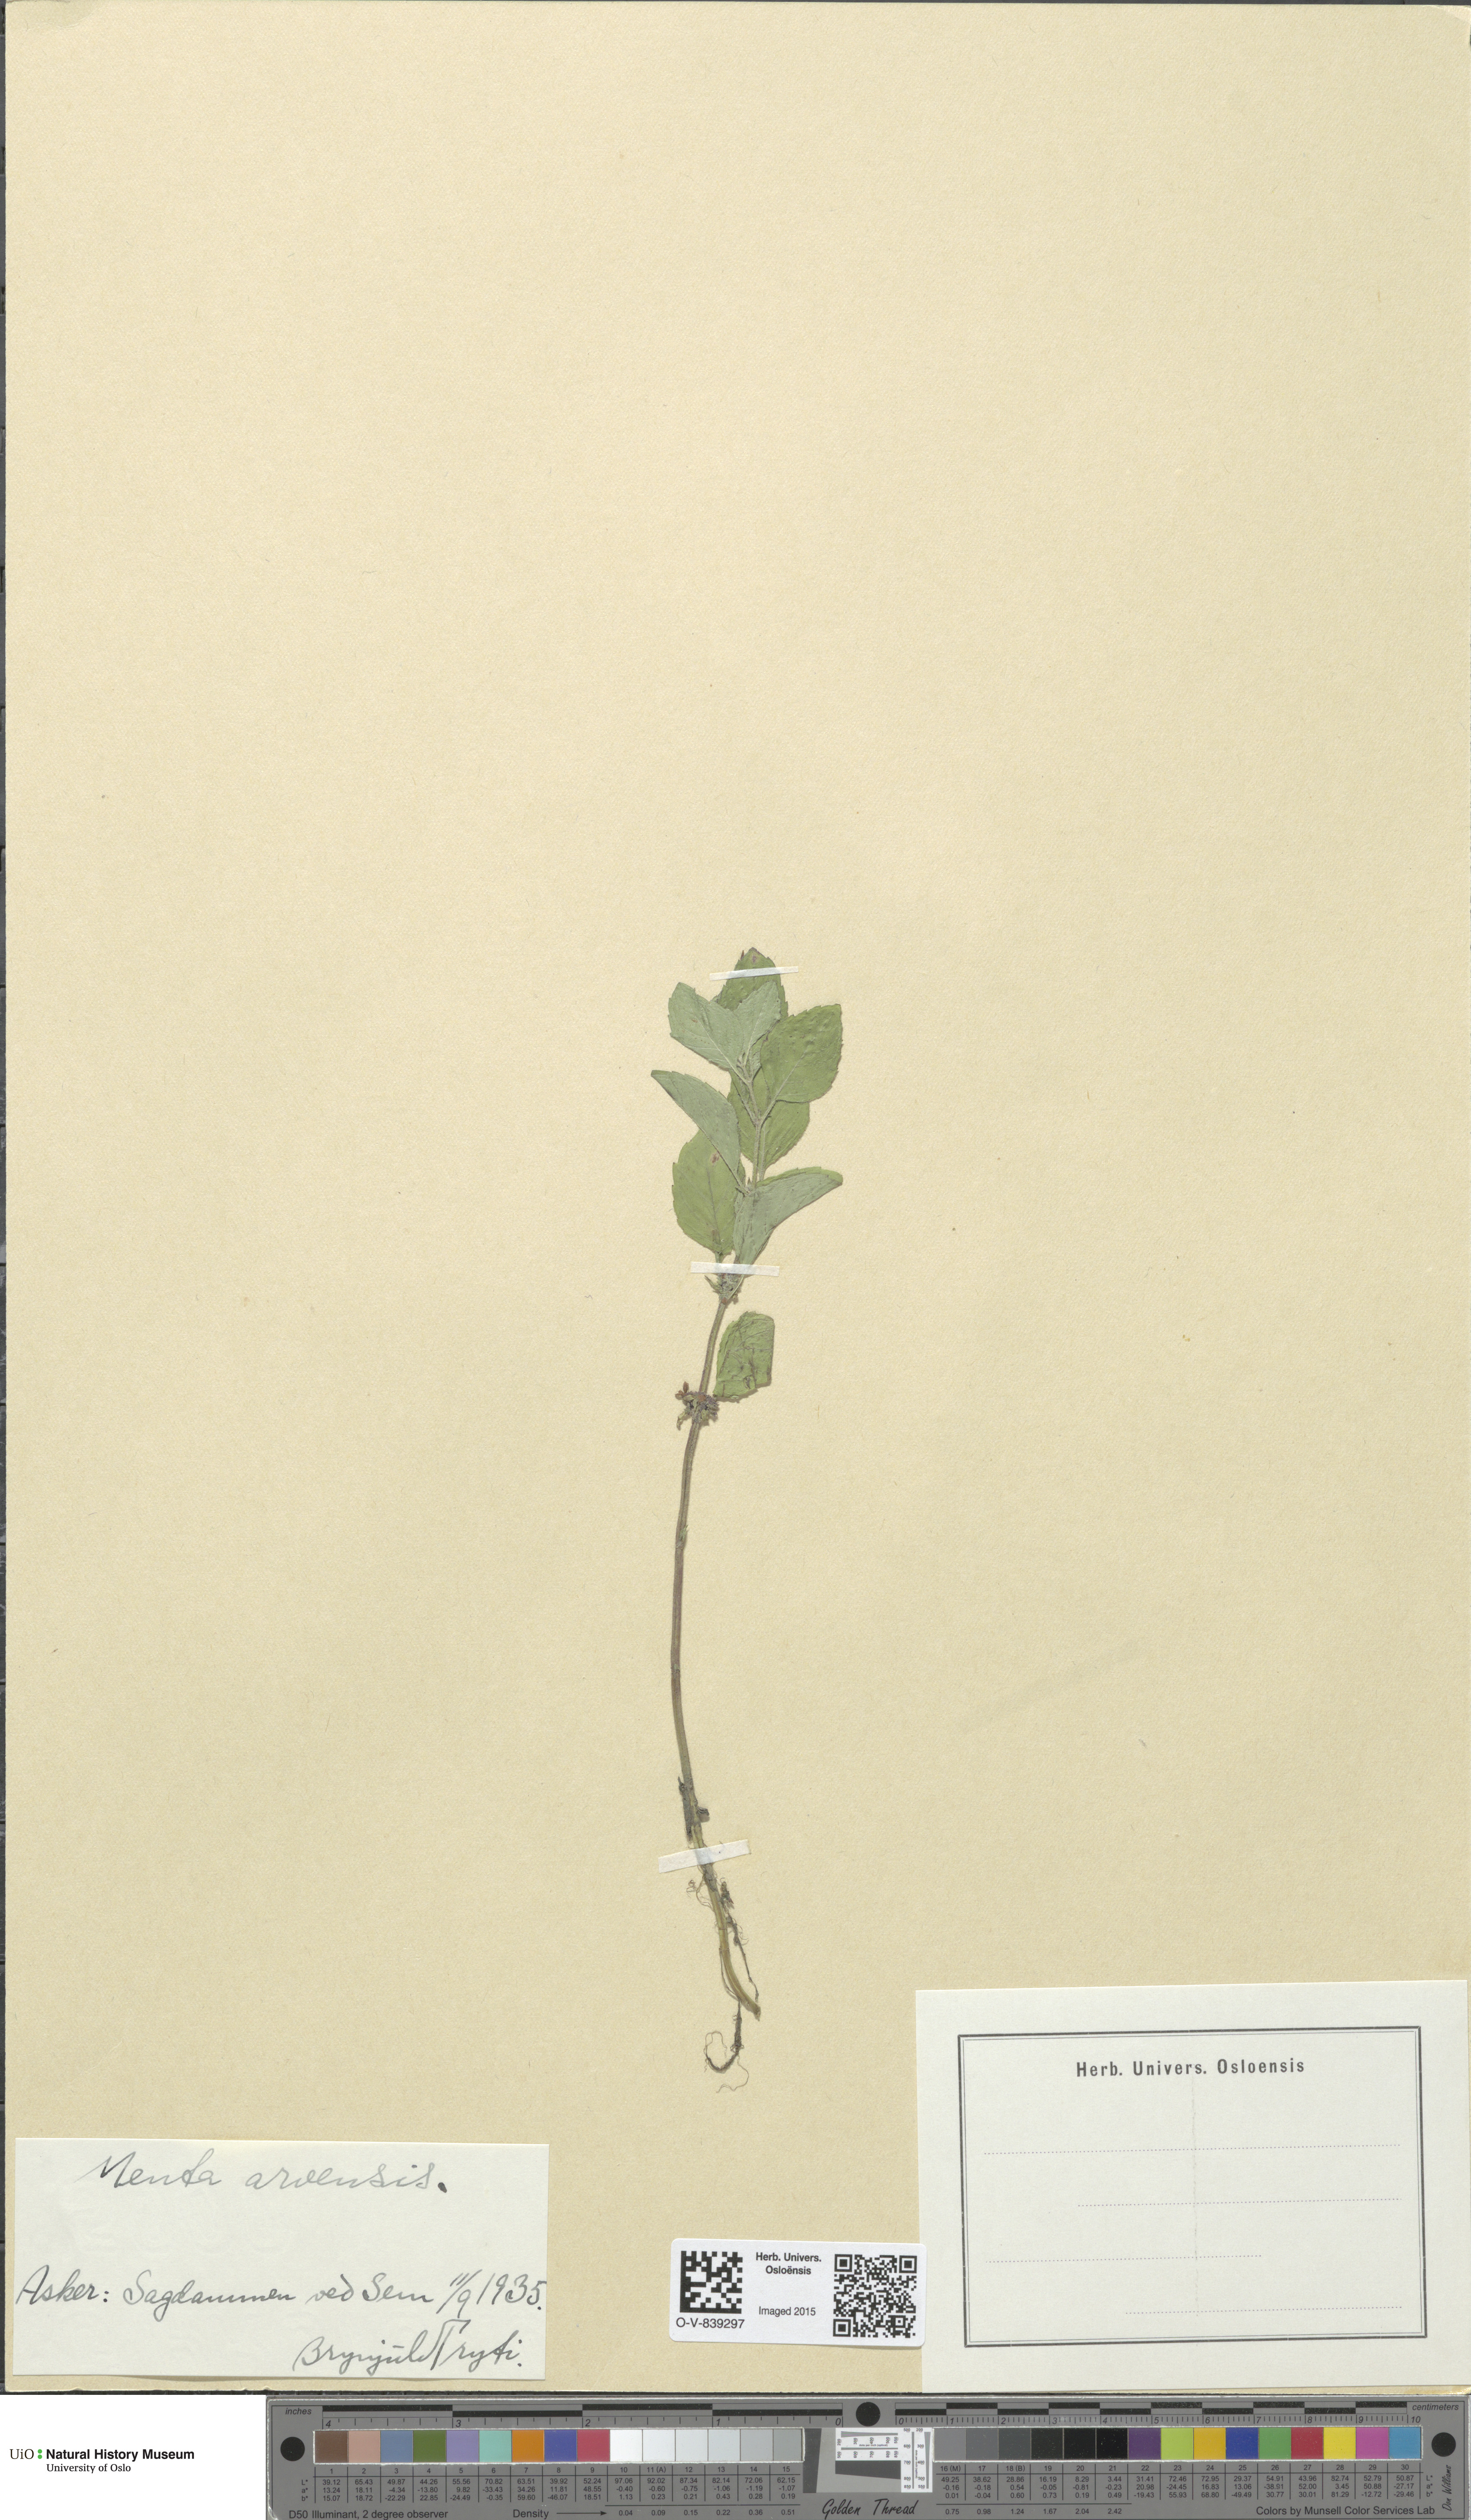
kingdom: Plantae
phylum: Tracheophyta
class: Magnoliopsida
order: Lamiales
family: Lamiaceae
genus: Mentha
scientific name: Mentha arvensis
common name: Corn mint
